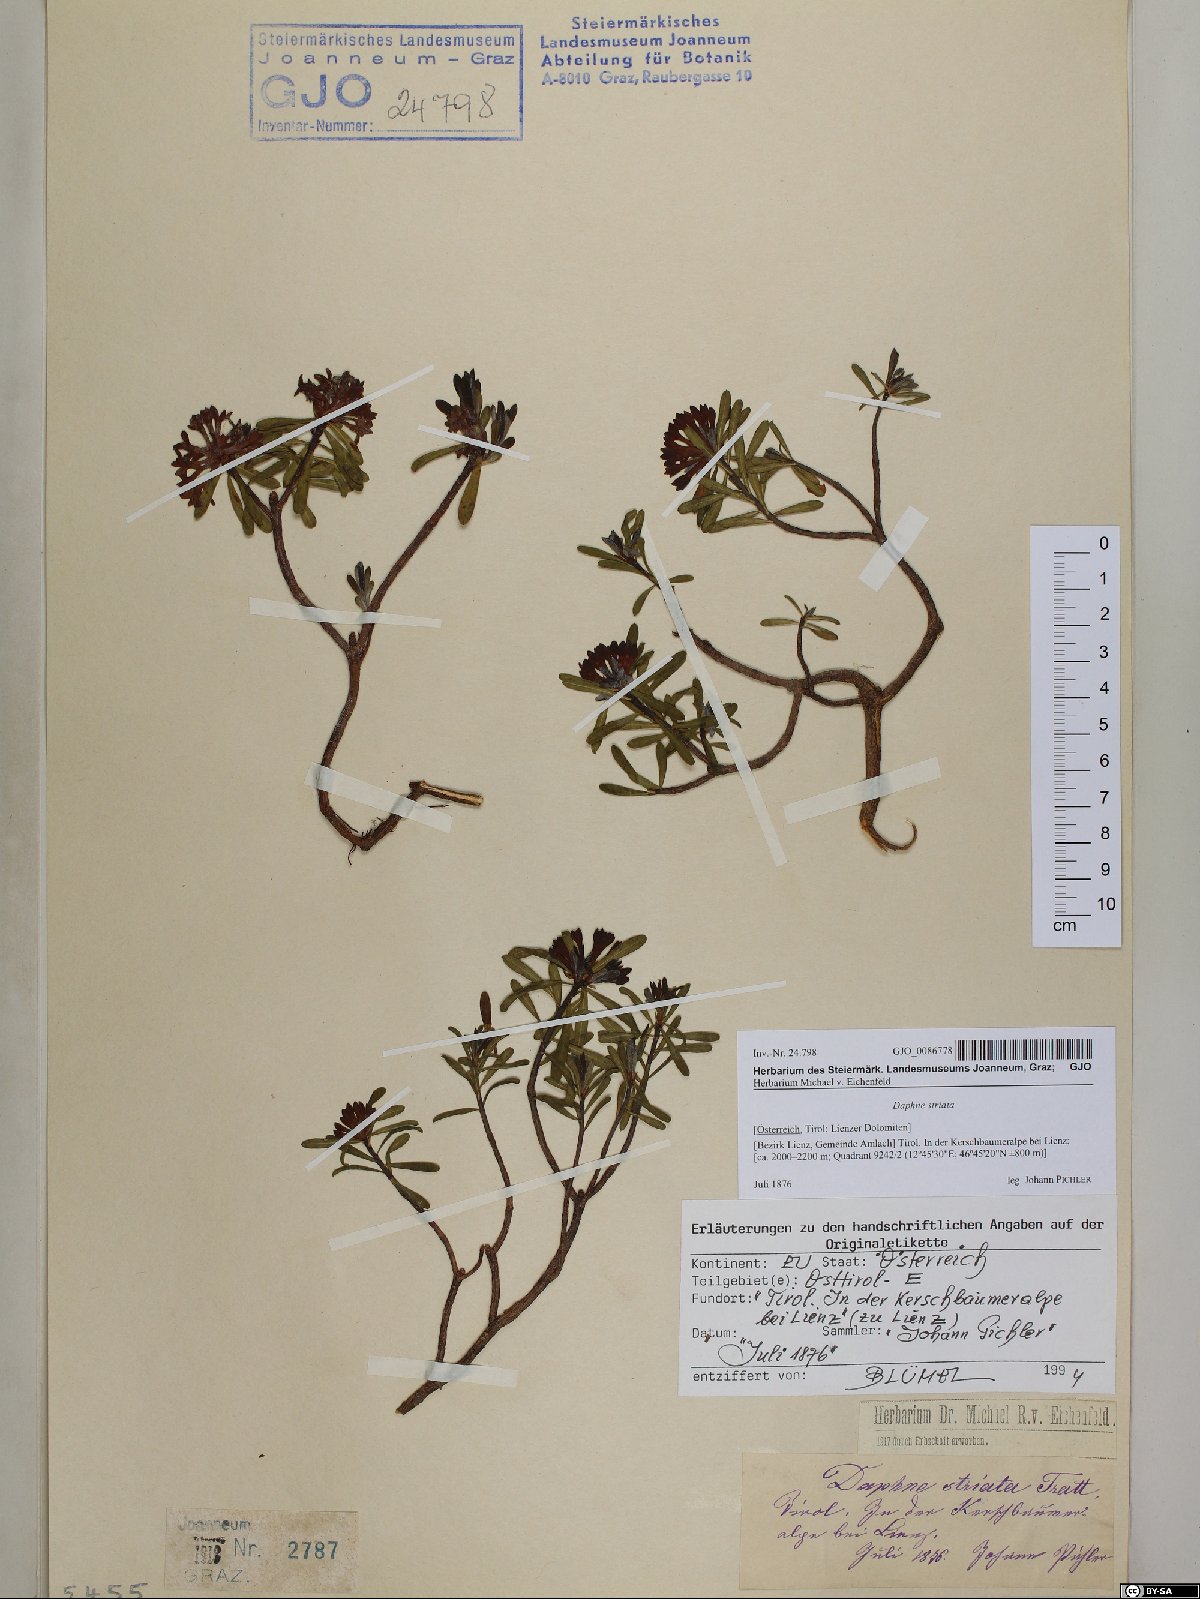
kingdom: Plantae
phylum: Tracheophyta
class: Magnoliopsida
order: Malvales
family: Thymelaeaceae
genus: Daphne
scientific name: Daphne striata
